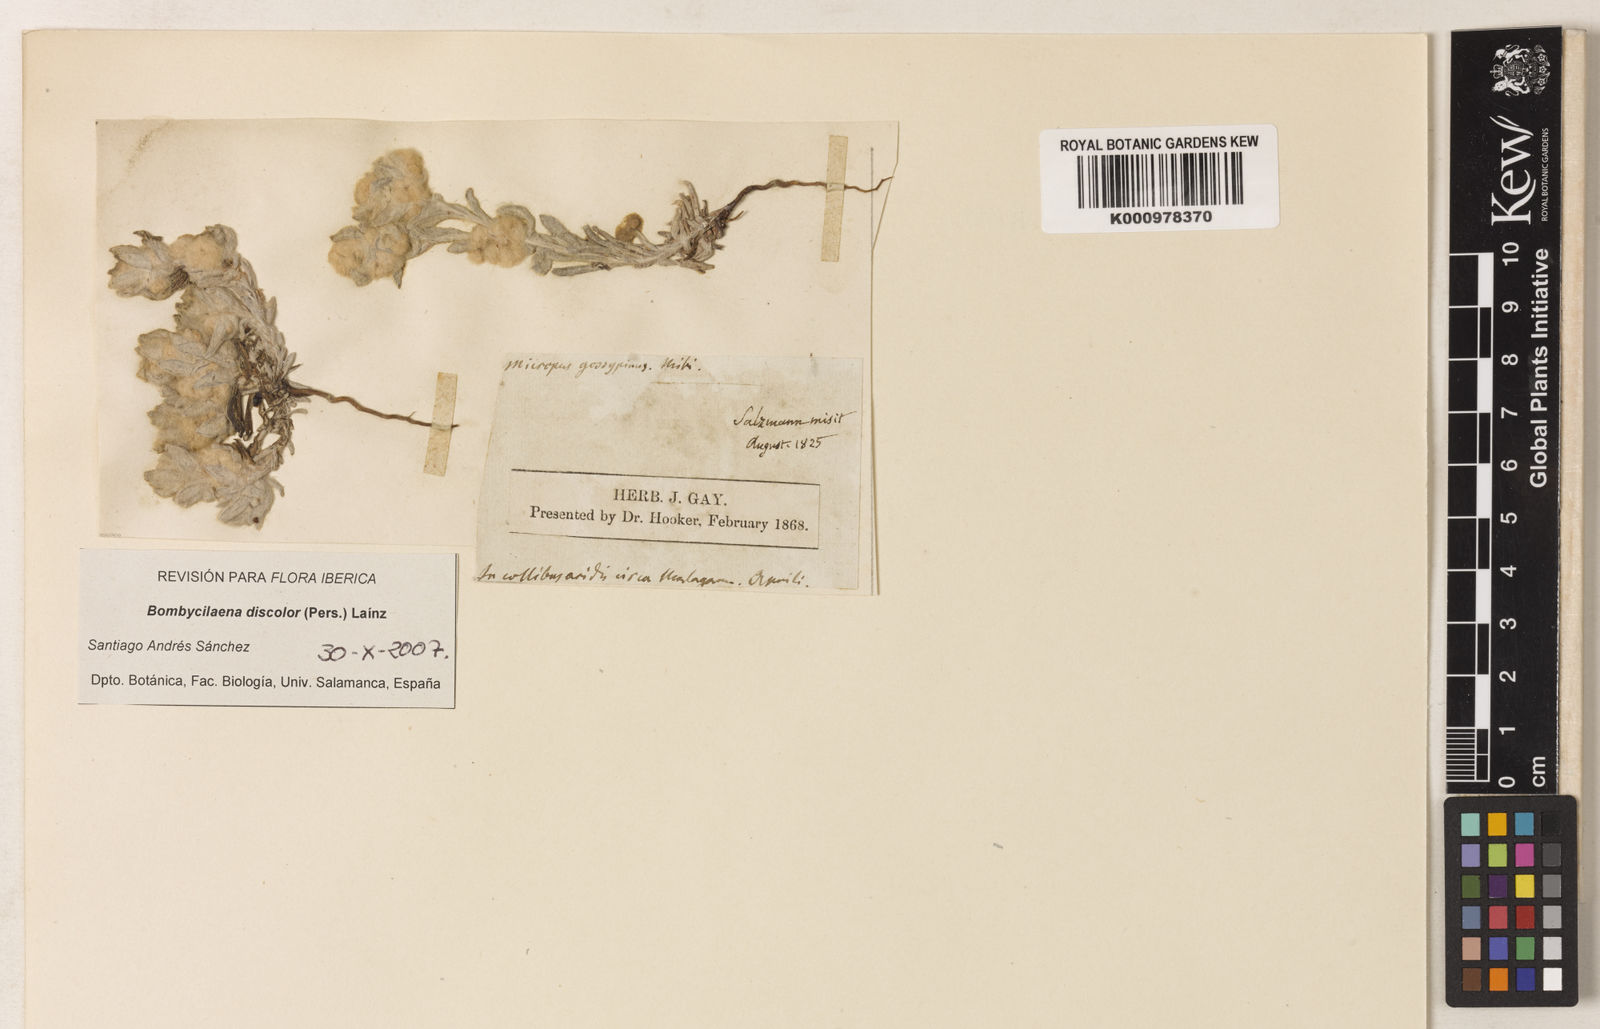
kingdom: Plantae
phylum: Tracheophyta
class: Magnoliopsida
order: Asterales
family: Asteraceae
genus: Bombycilaena
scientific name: Bombycilaena
